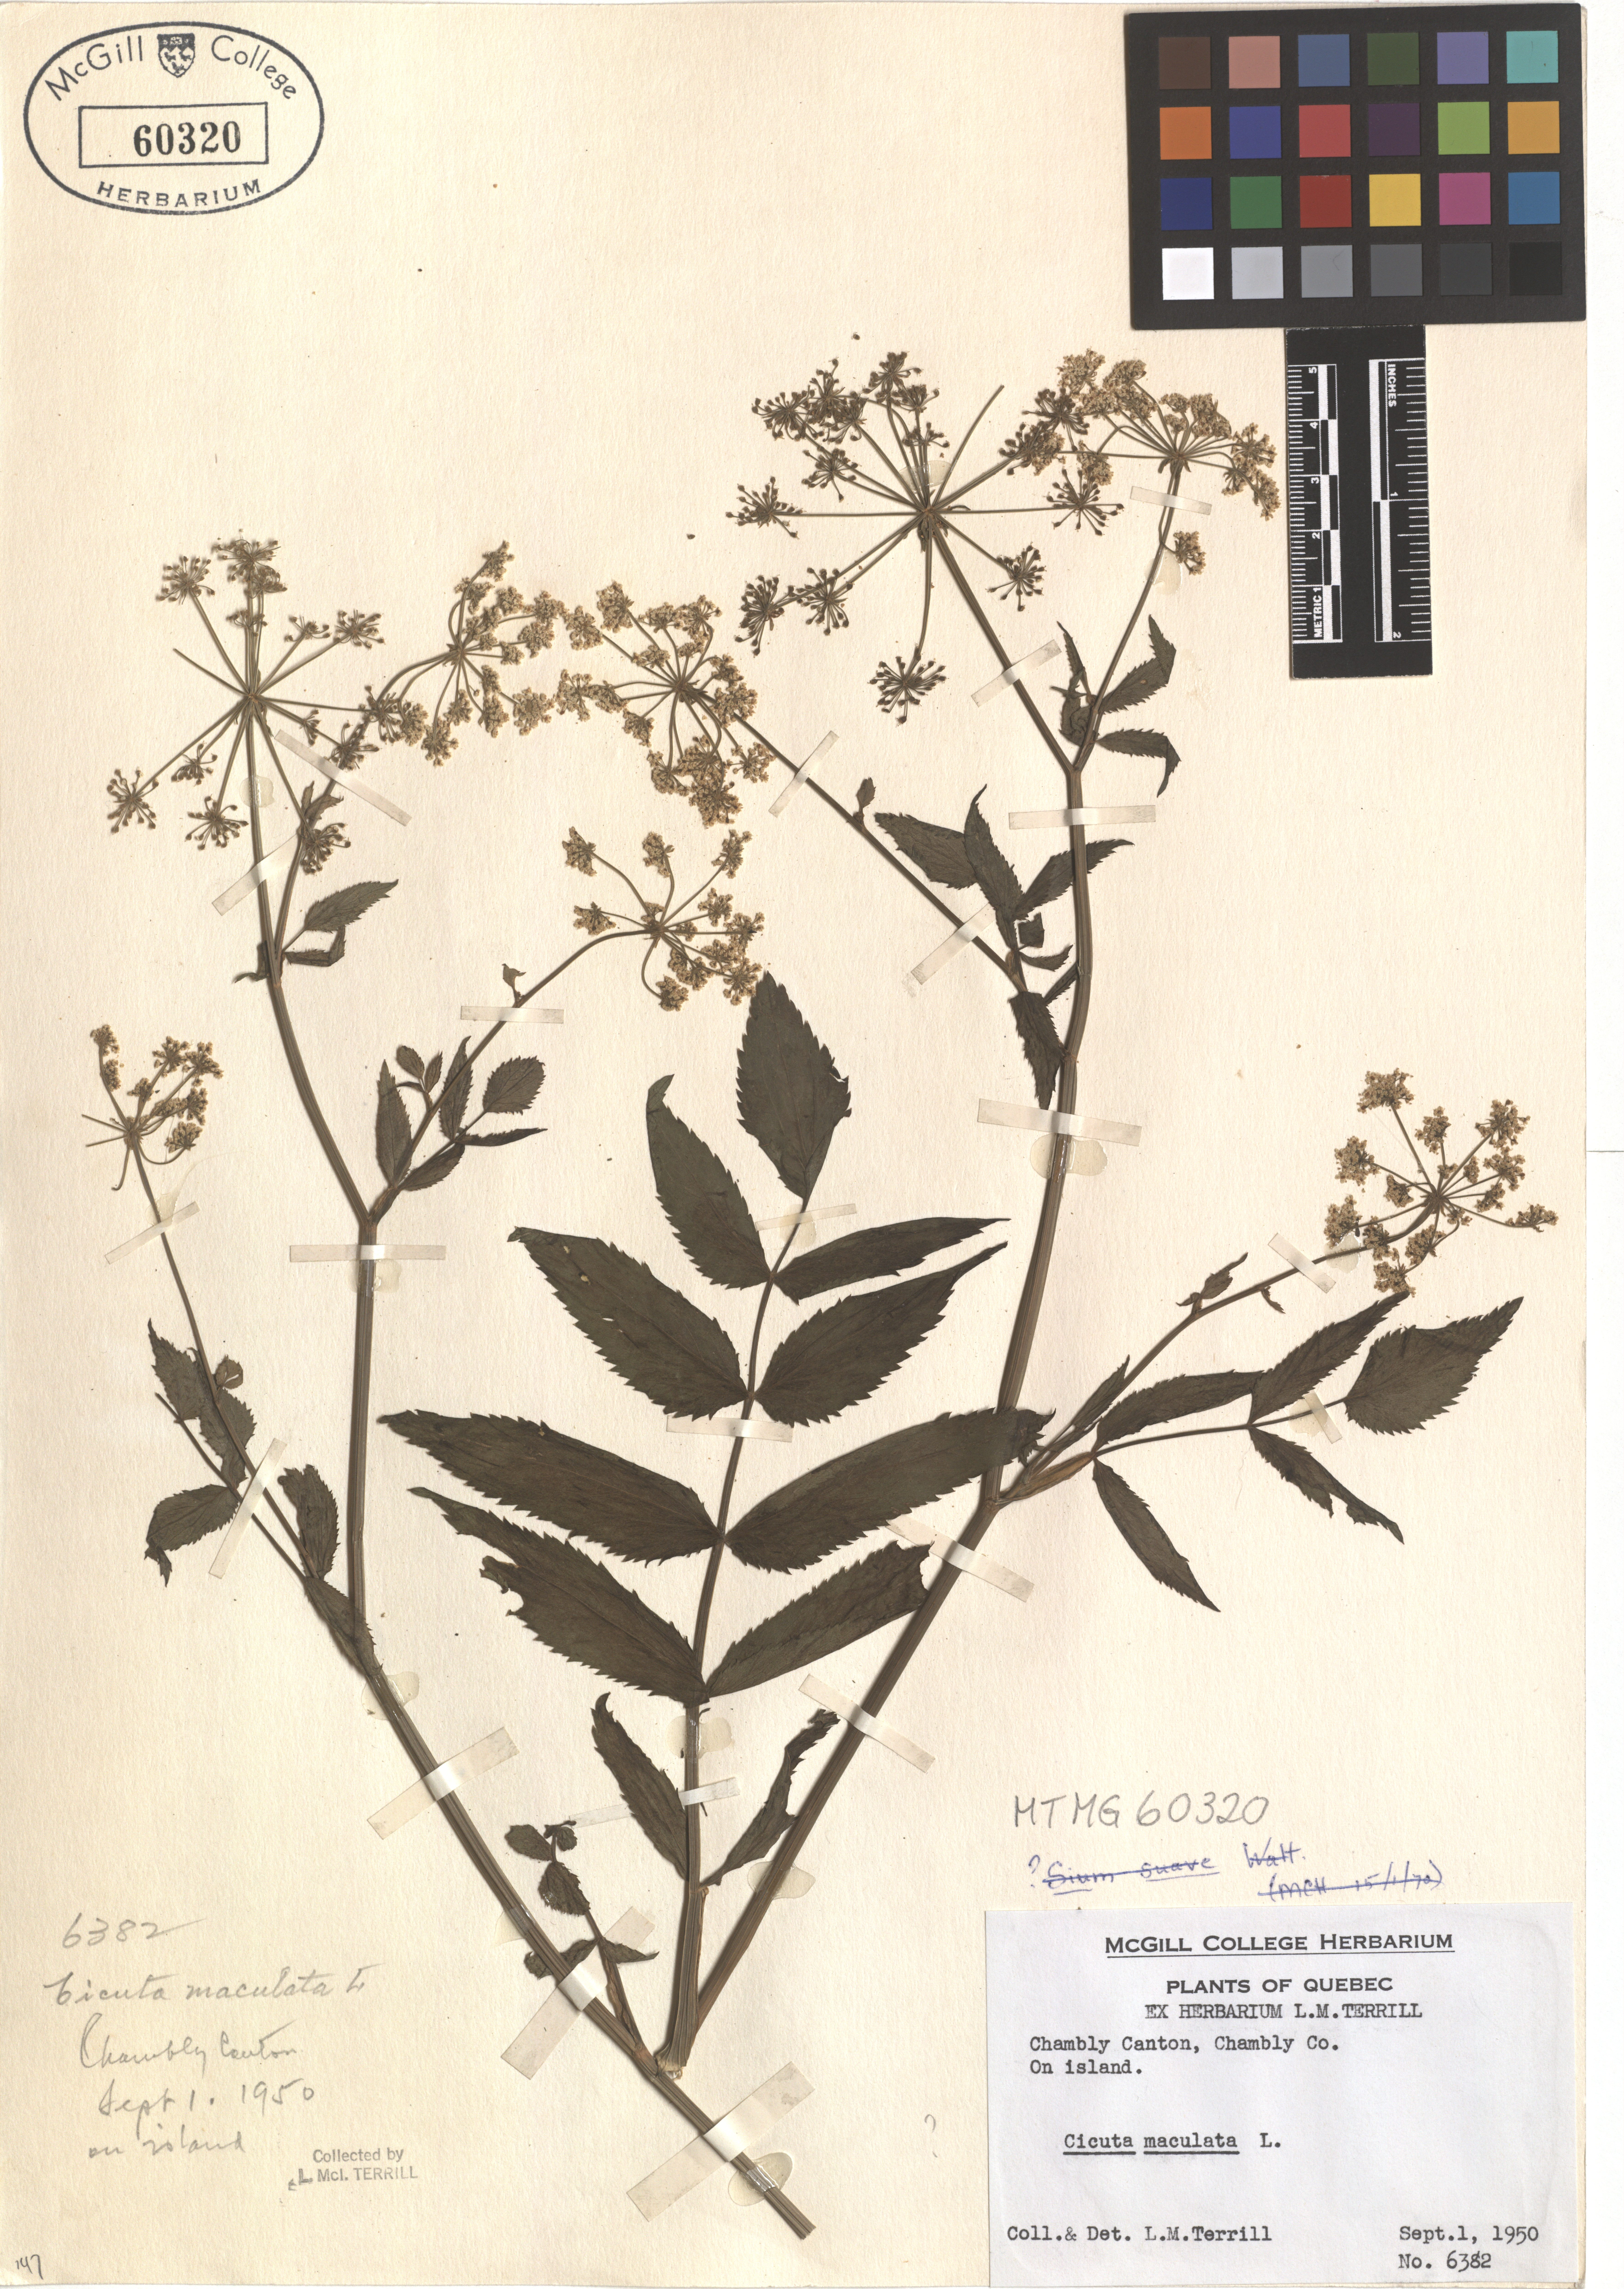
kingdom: Plantae
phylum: Tracheophyta
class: Magnoliopsida
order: Apiales
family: Apiaceae
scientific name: Apiaceae
